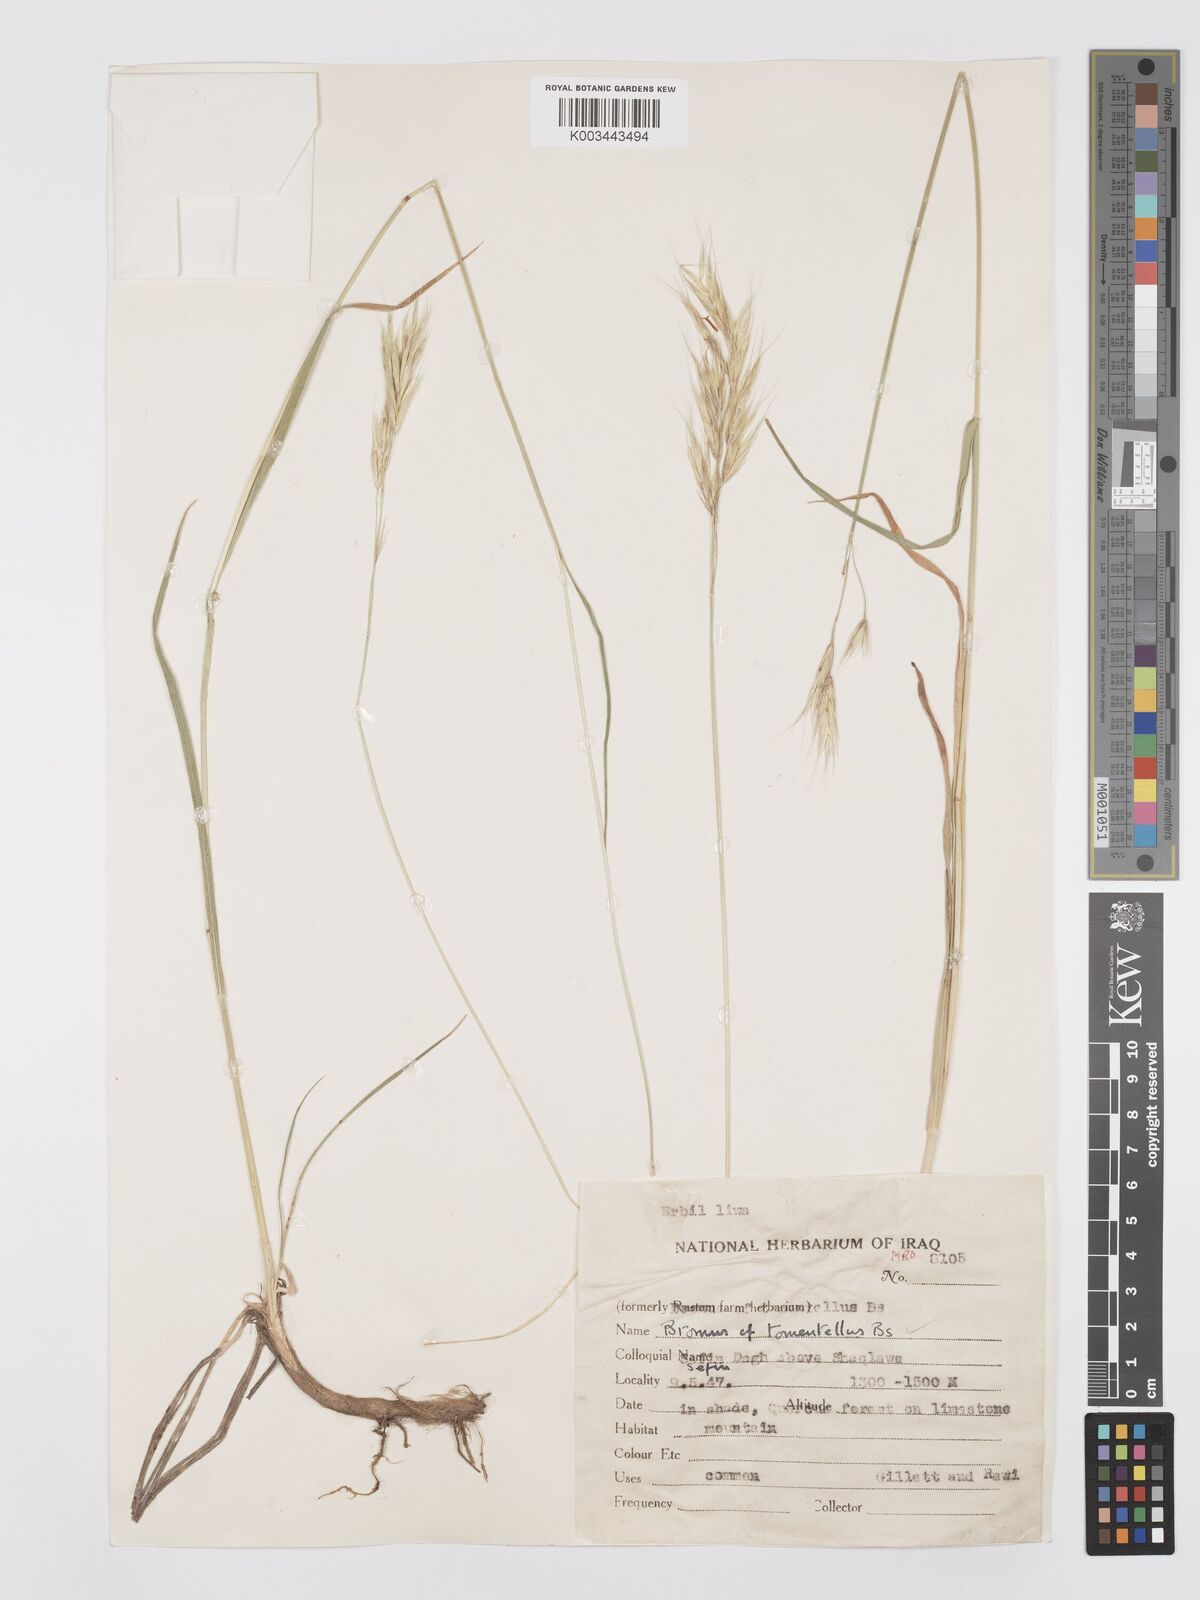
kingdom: Plantae
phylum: Tracheophyta
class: Liliopsida
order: Poales
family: Poaceae
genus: Bromus
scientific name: Bromus tomentellus
